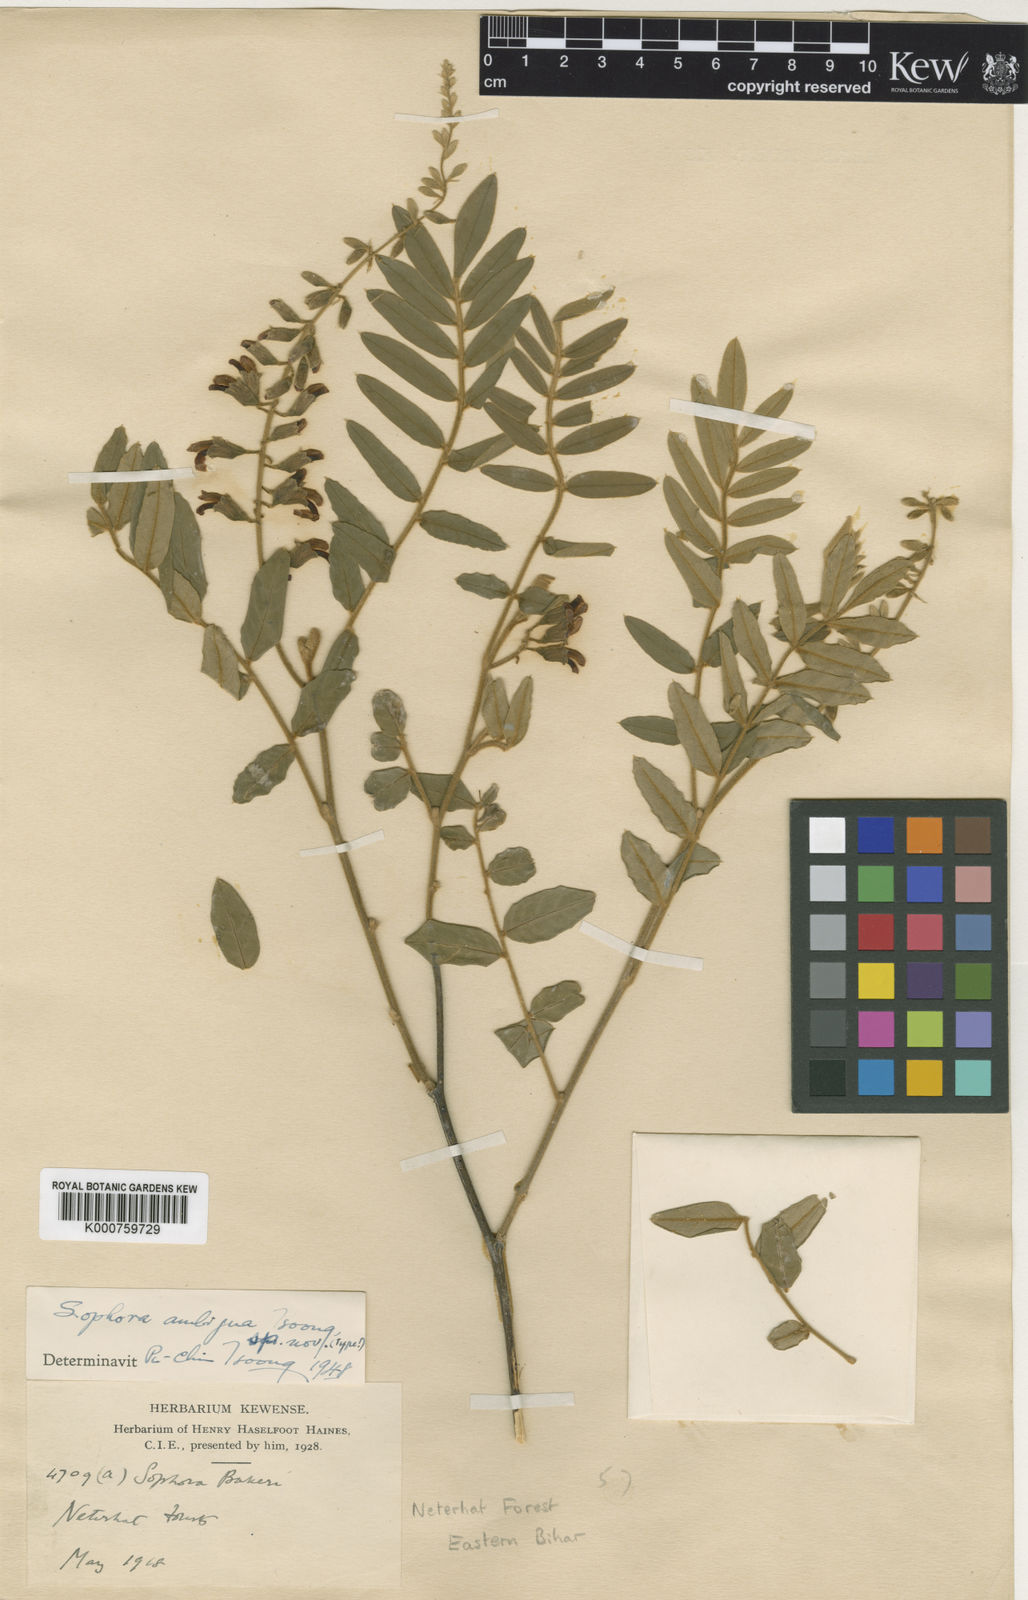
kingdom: Plantae
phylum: Tracheophyta
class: Magnoliopsida
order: Fabales
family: Fabaceae
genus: Sophora
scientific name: Sophora velutina
